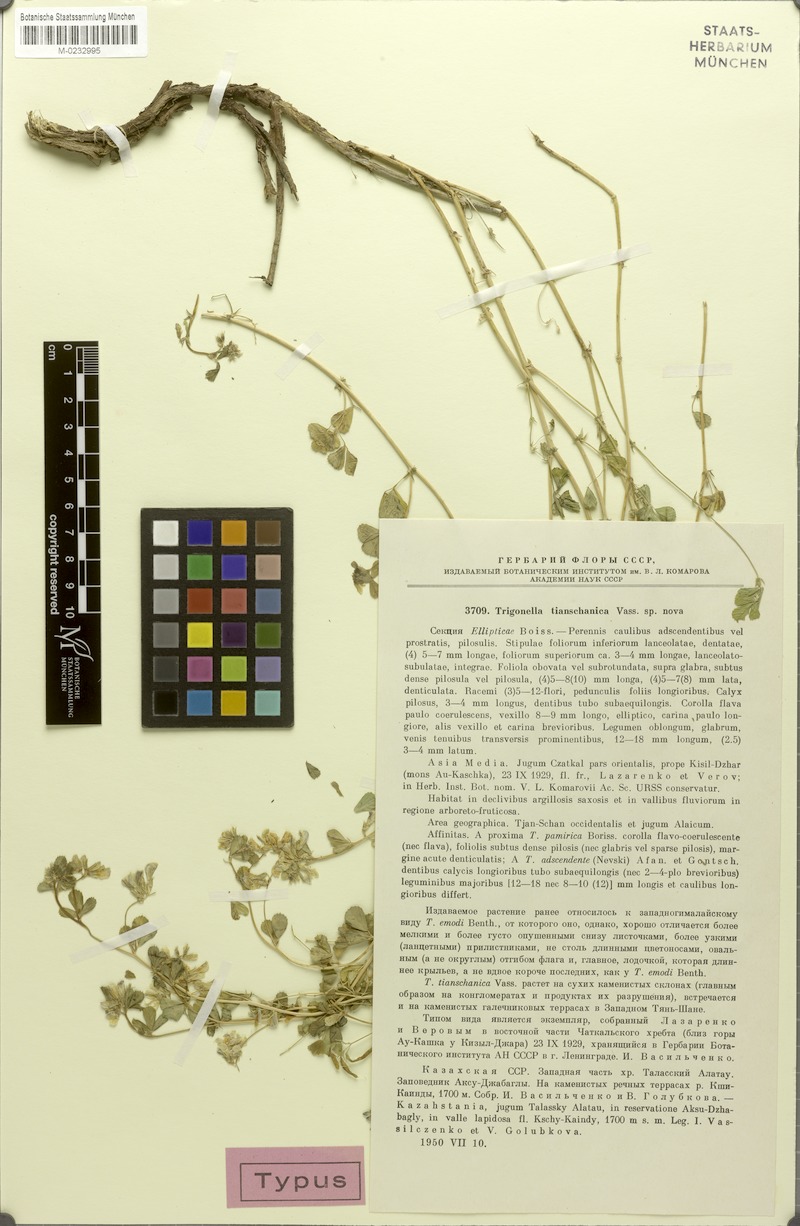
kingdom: Plantae
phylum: Tracheophyta
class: Magnoliopsida
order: Fabales
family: Fabaceae
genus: Trigonella
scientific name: Trigonella aristata
